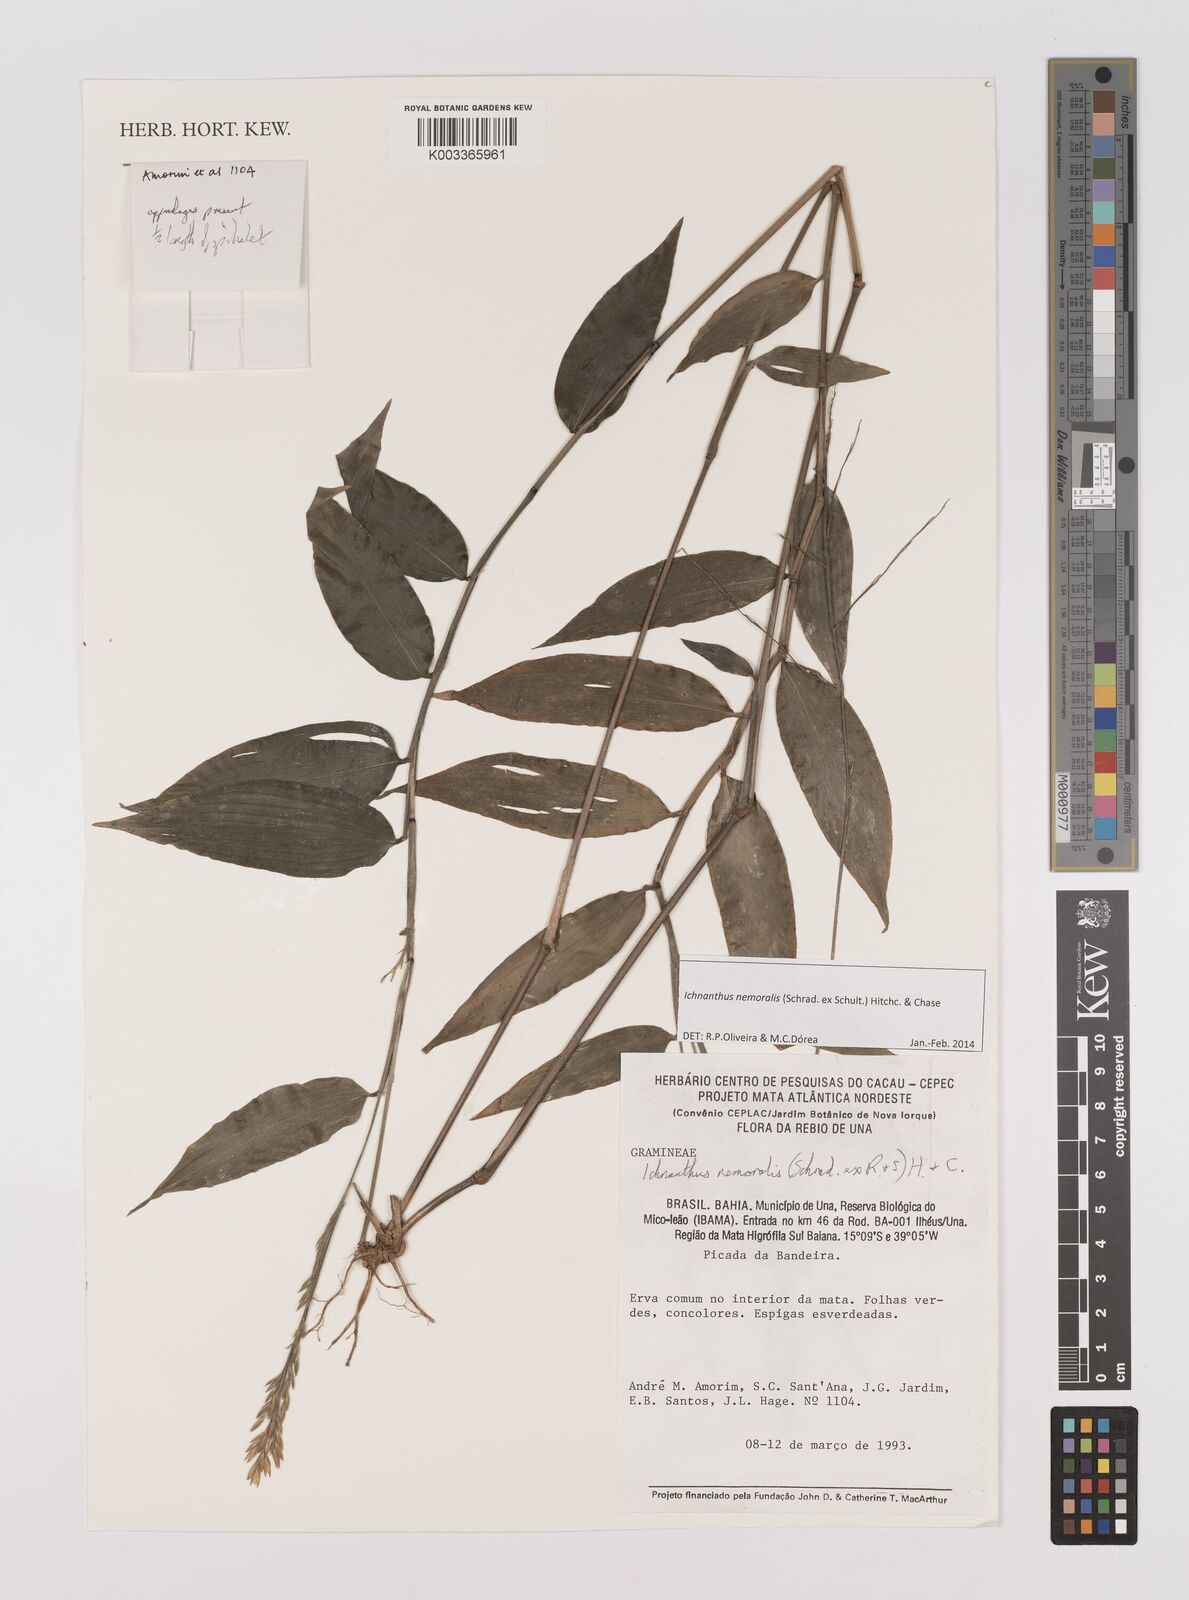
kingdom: Plantae
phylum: Tracheophyta
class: Liliopsida
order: Poales
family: Poaceae
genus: Ichnanthus
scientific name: Ichnanthus nemoralis
